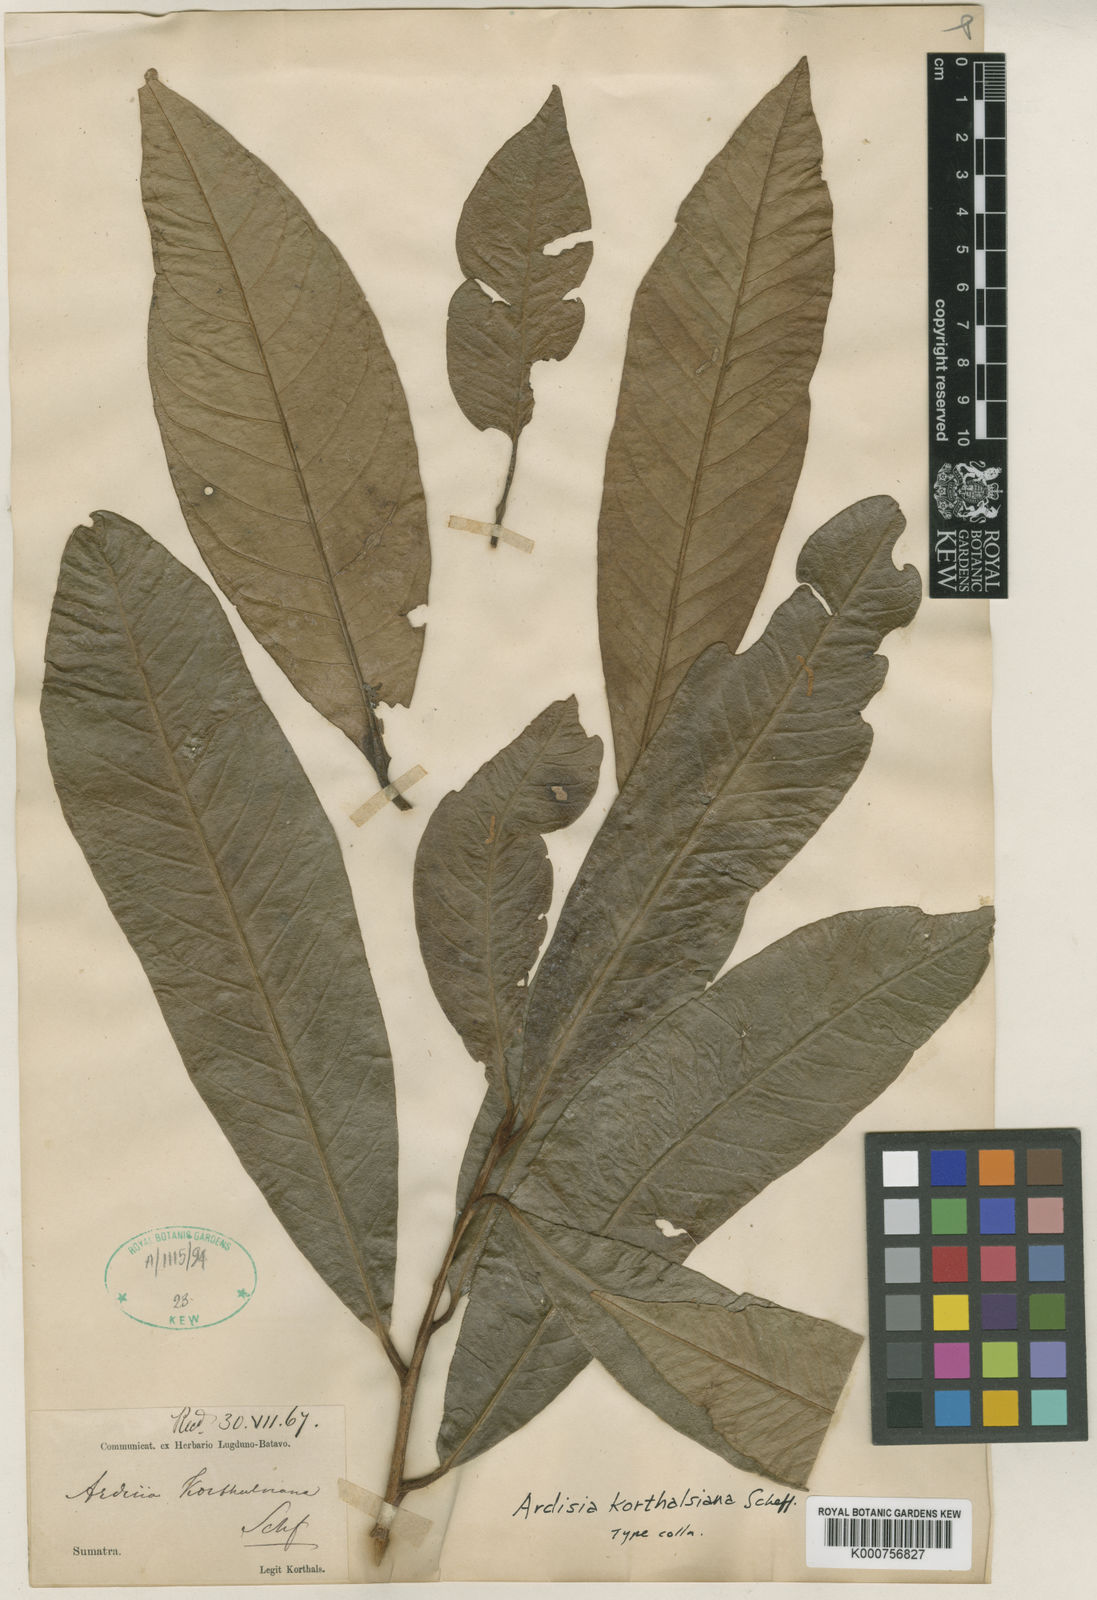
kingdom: Plantae
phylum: Tracheophyta
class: Magnoliopsida
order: Ericales
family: Primulaceae
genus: Ardisia
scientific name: Ardisia korthalsiana
